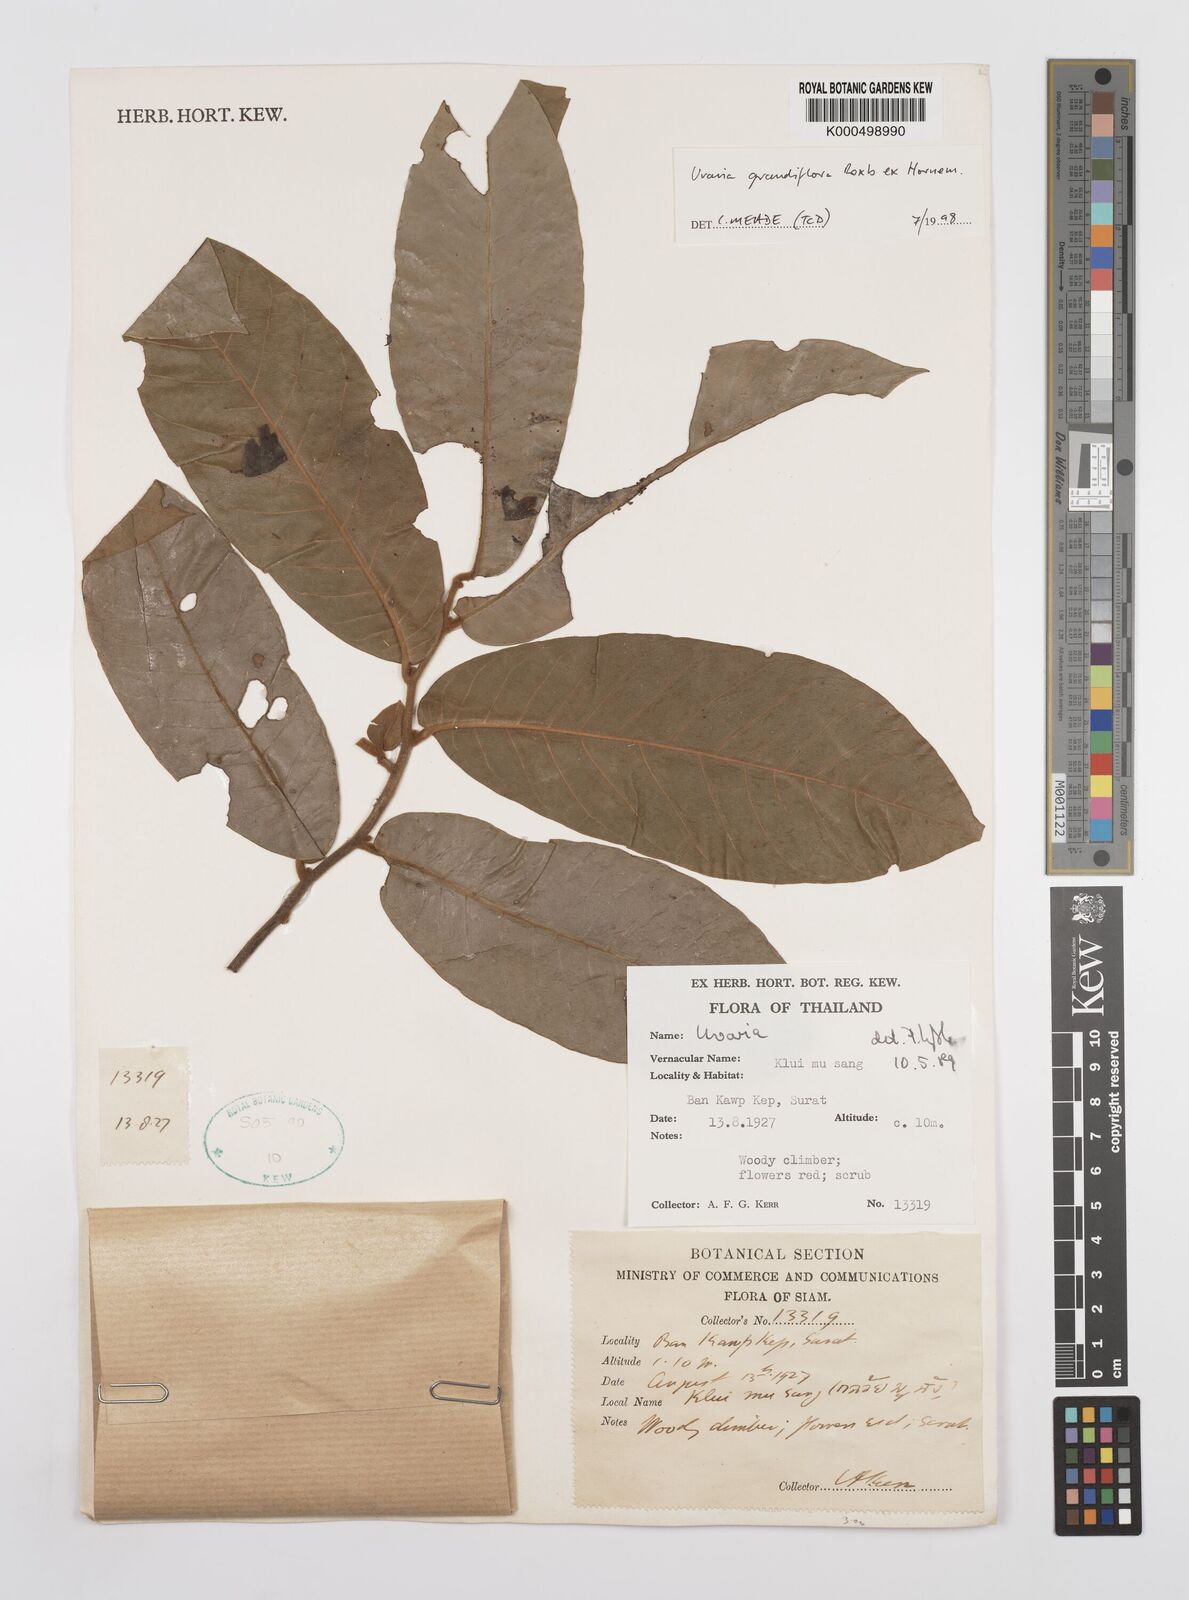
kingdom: Plantae
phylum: Tracheophyta
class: Magnoliopsida
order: Magnoliales
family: Annonaceae
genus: Uvaria
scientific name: Uvaria grandiflora
